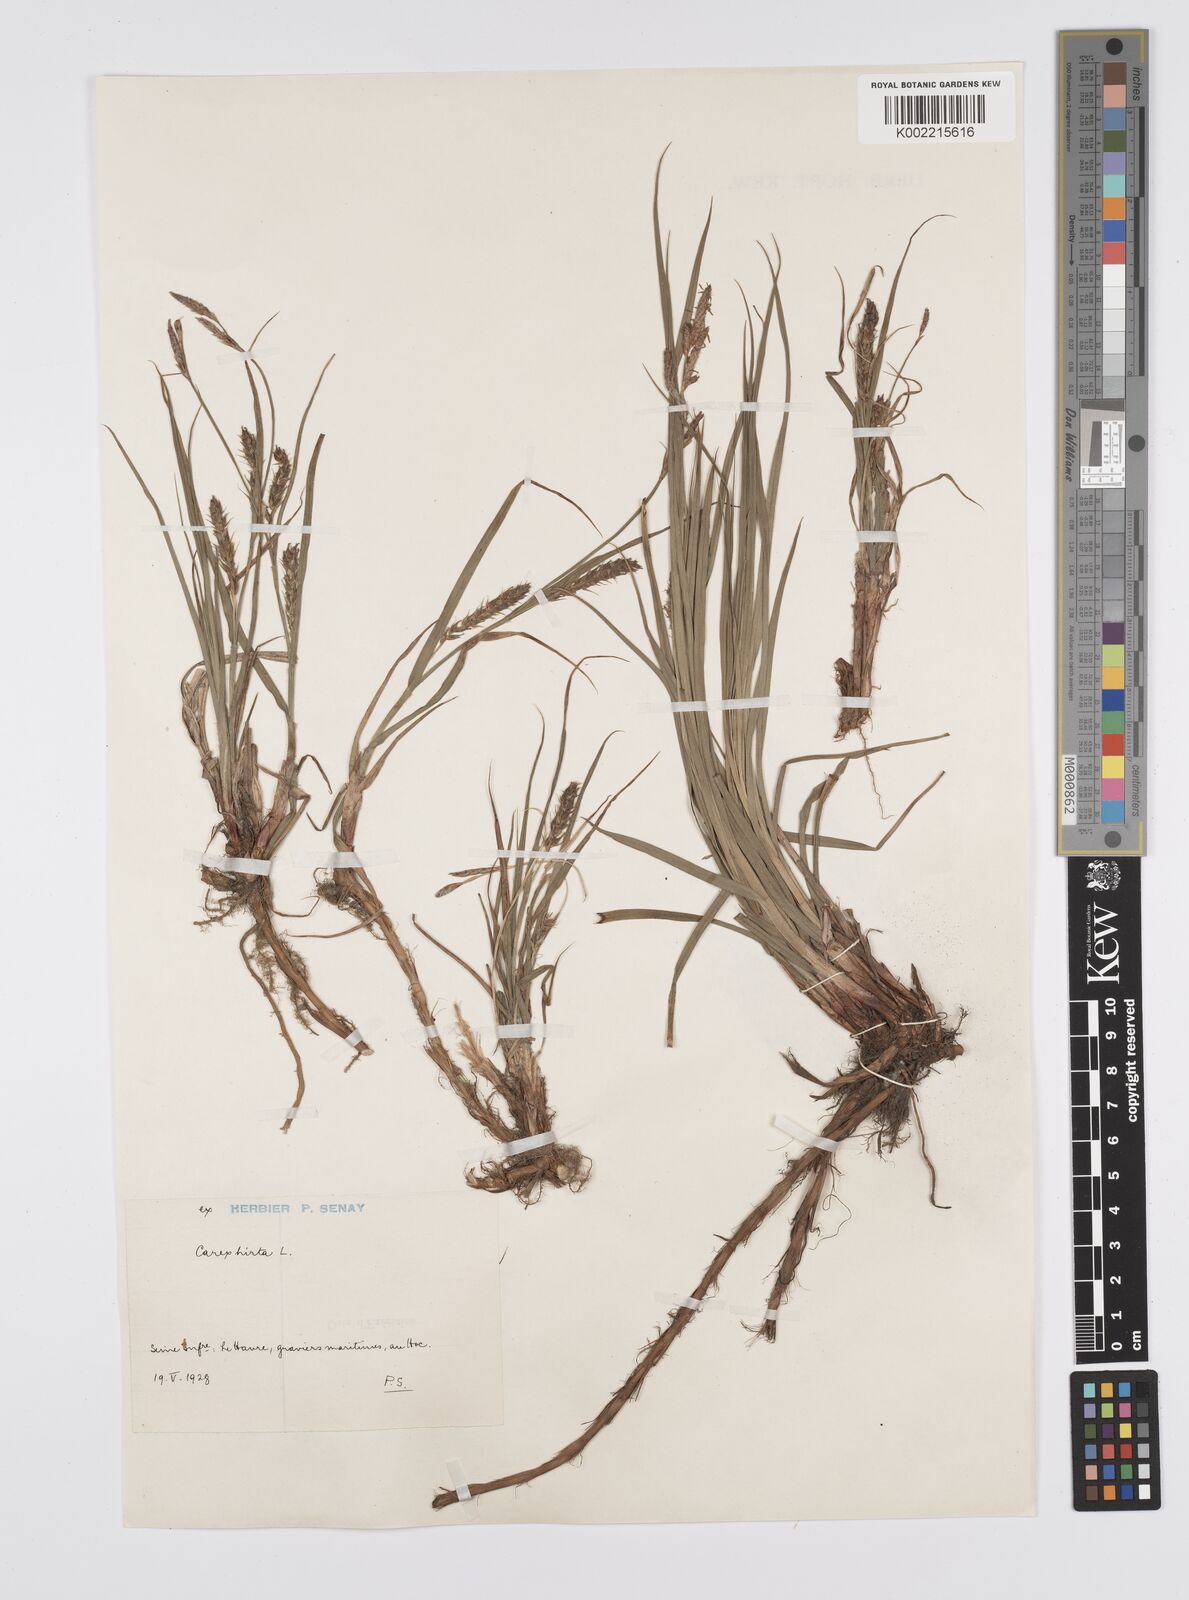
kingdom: Plantae
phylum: Tracheophyta
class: Liliopsida
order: Poales
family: Cyperaceae
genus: Carex
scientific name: Carex hirta
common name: Hairy sedge
